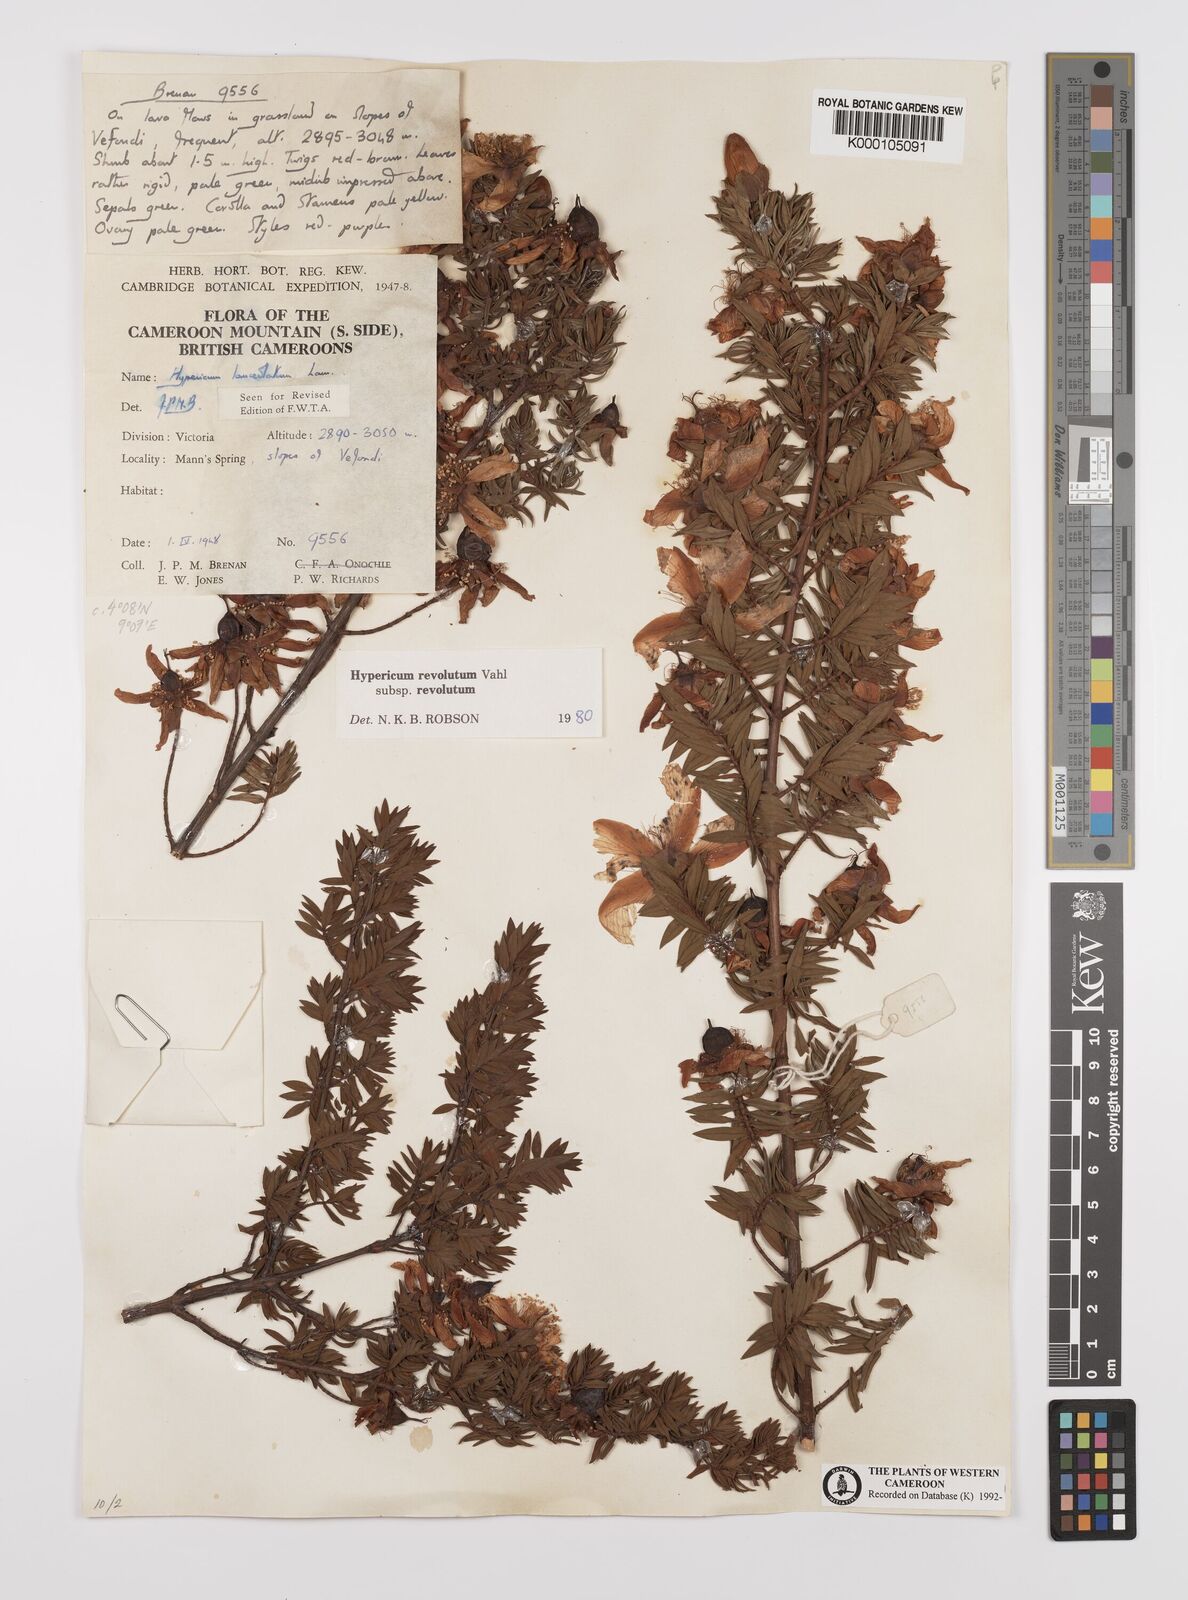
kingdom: Plantae
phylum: Tracheophyta
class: Magnoliopsida
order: Malpighiales
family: Hypericaceae
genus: Hypericum
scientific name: Hypericum revolutum
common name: Curry bush
